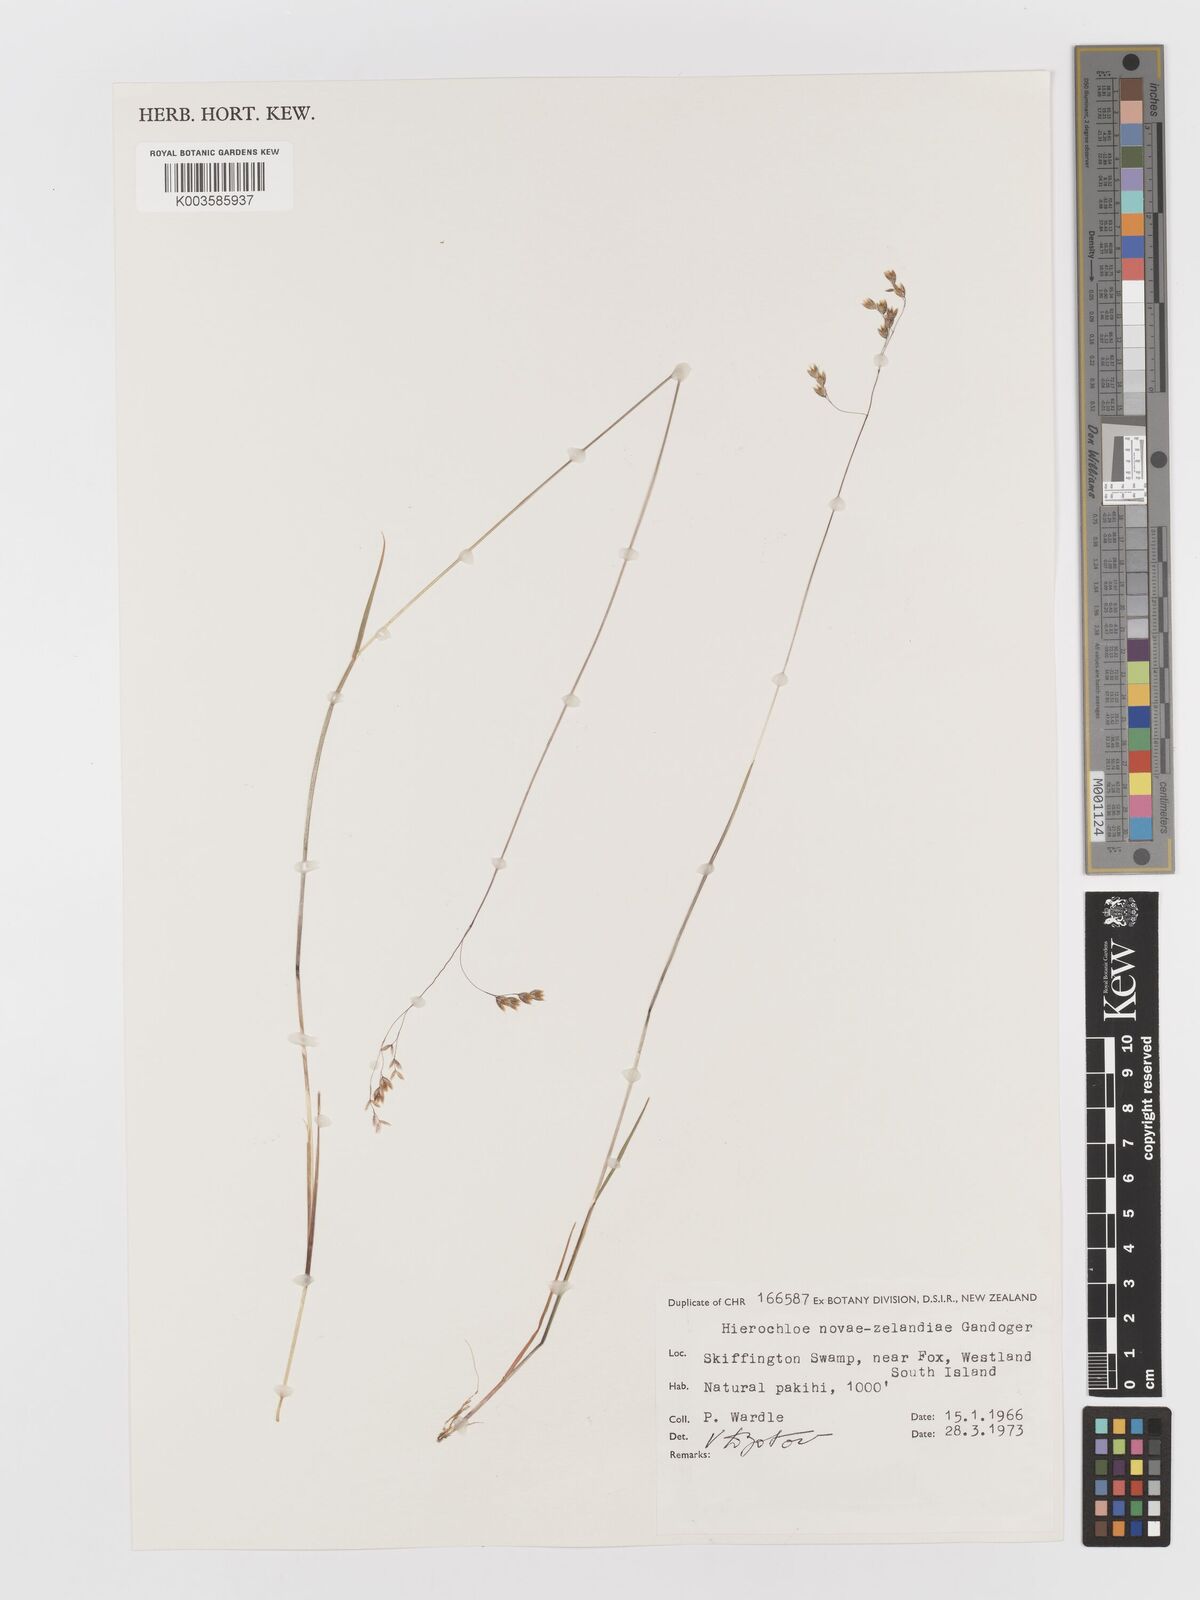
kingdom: Plantae
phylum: Tracheophyta
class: Liliopsida
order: Poales
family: Poaceae
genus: Anthoxanthum
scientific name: Anthoxanthum novae-zelandiae
